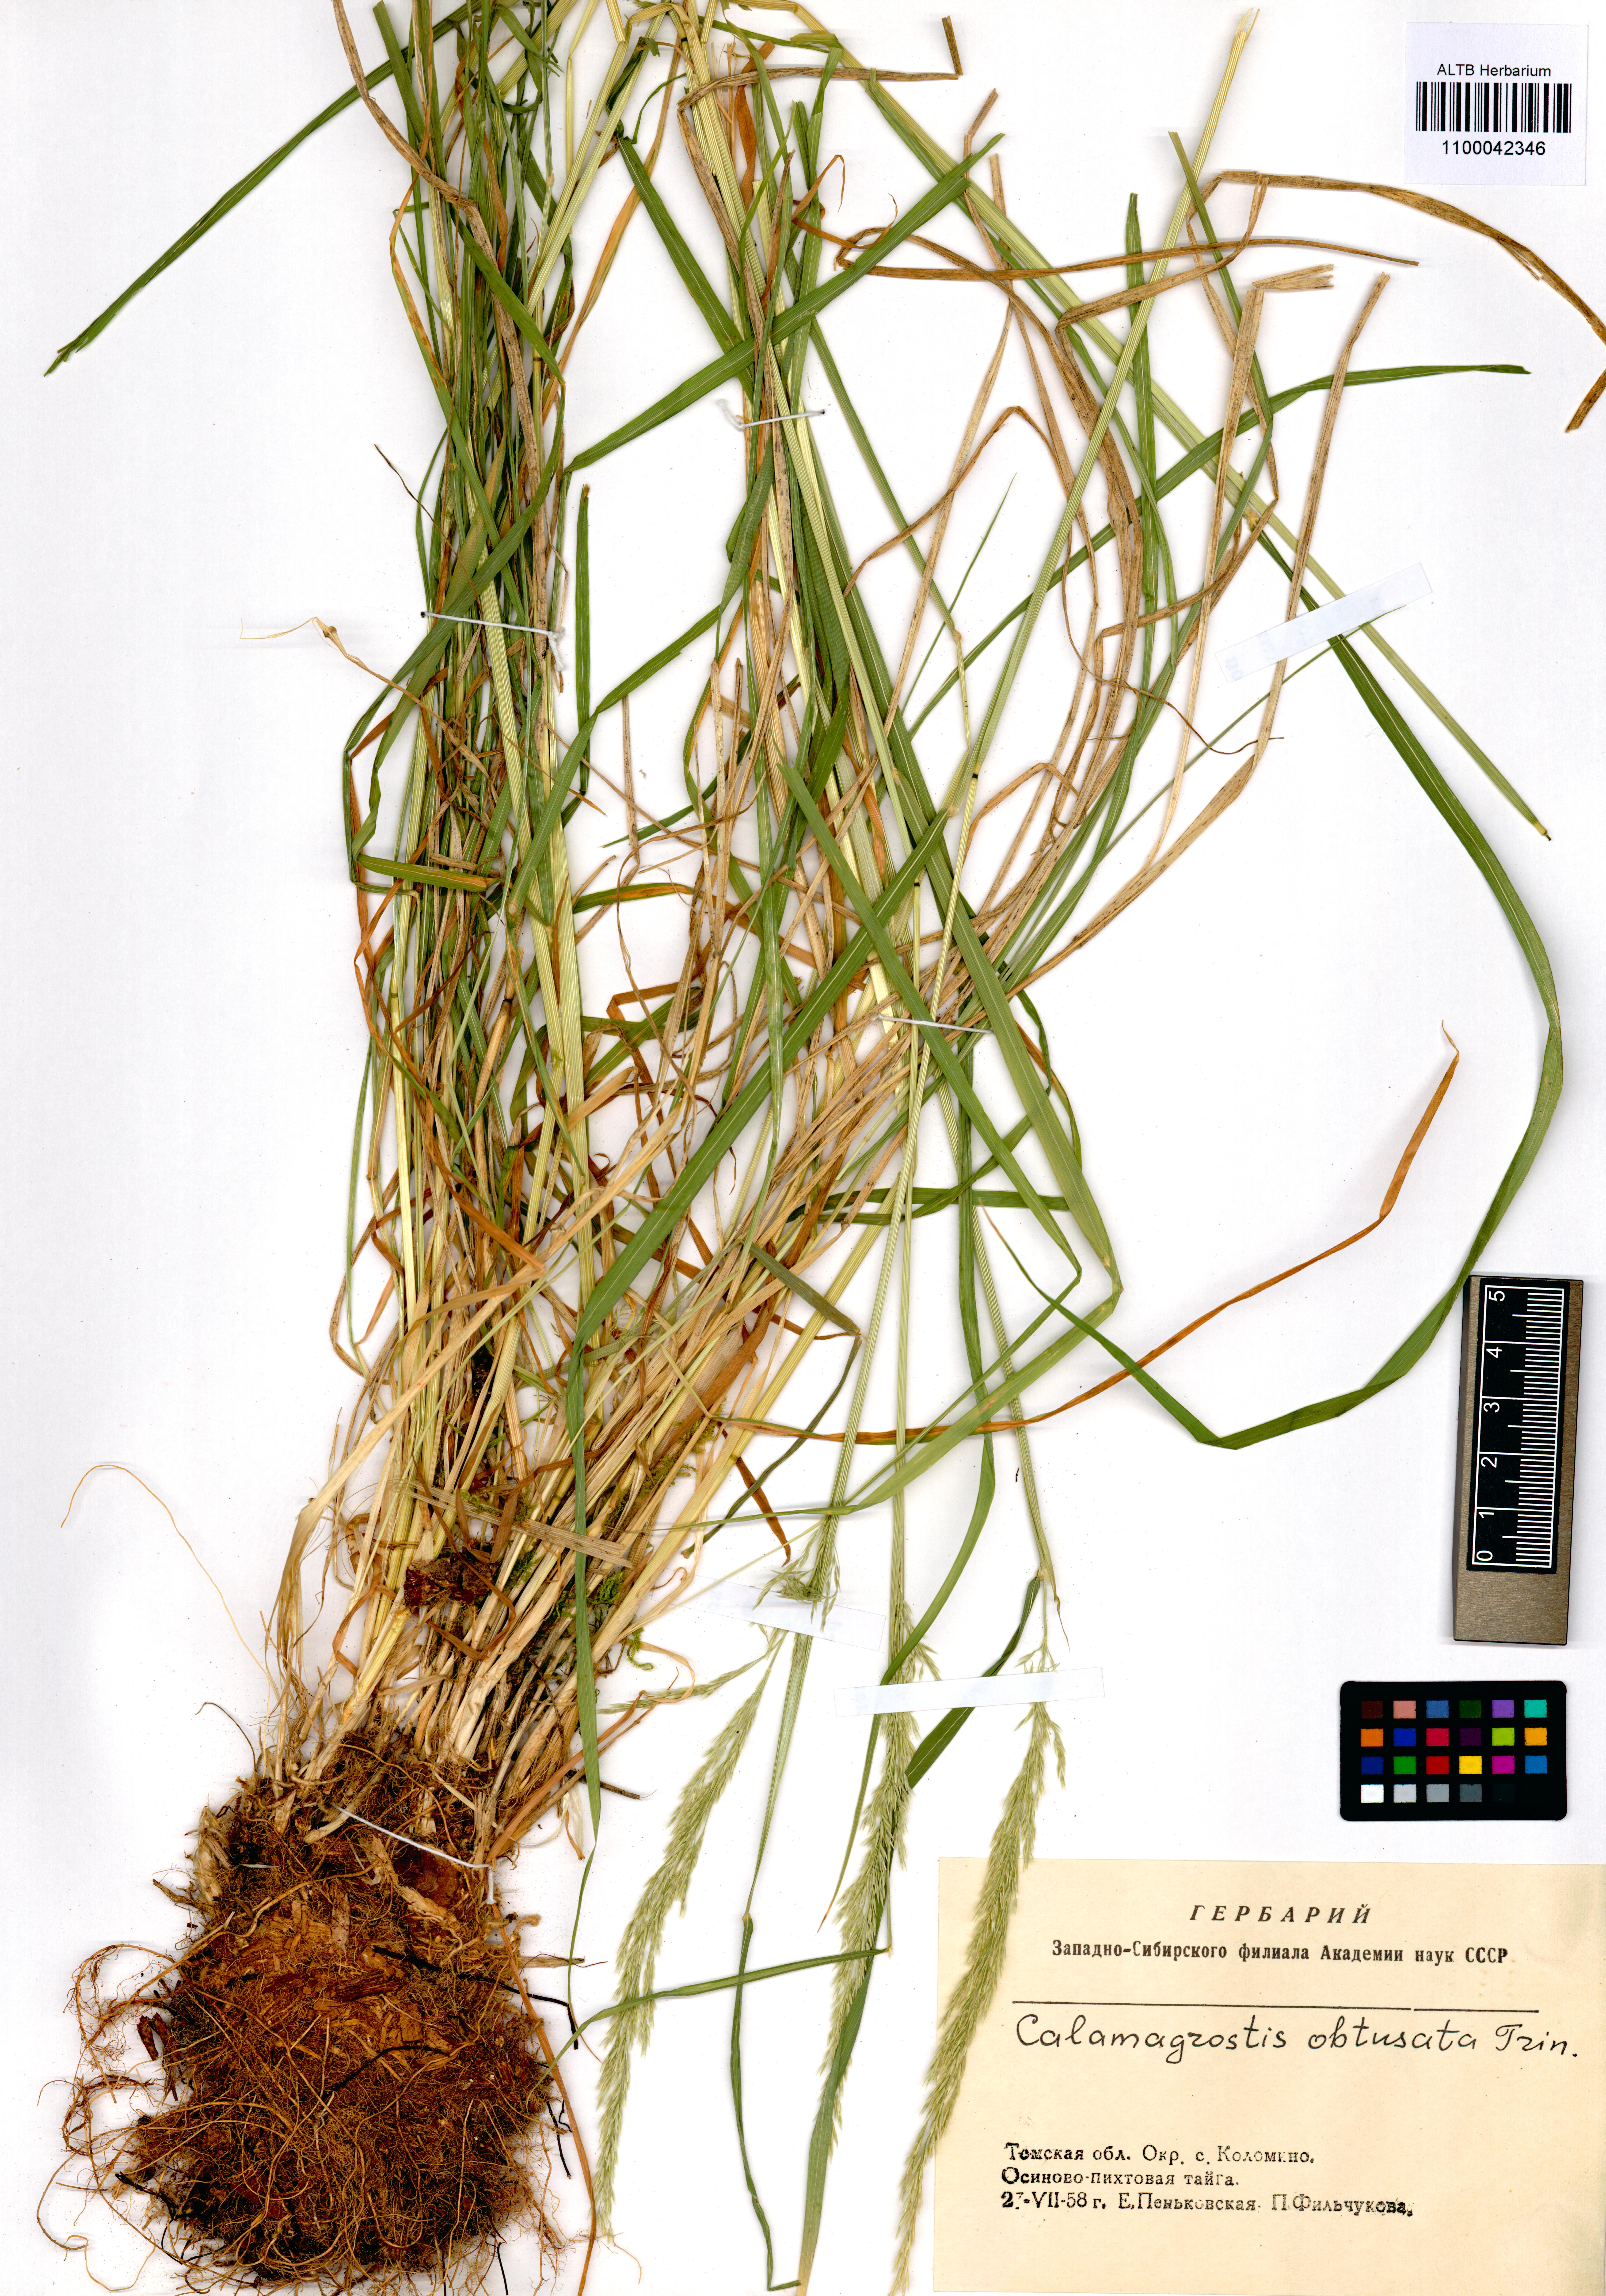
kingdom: Plantae
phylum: Tracheophyta
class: Liliopsida
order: Poales
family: Poaceae
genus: Calamagrostis
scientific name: Calamagrostis obtusata
